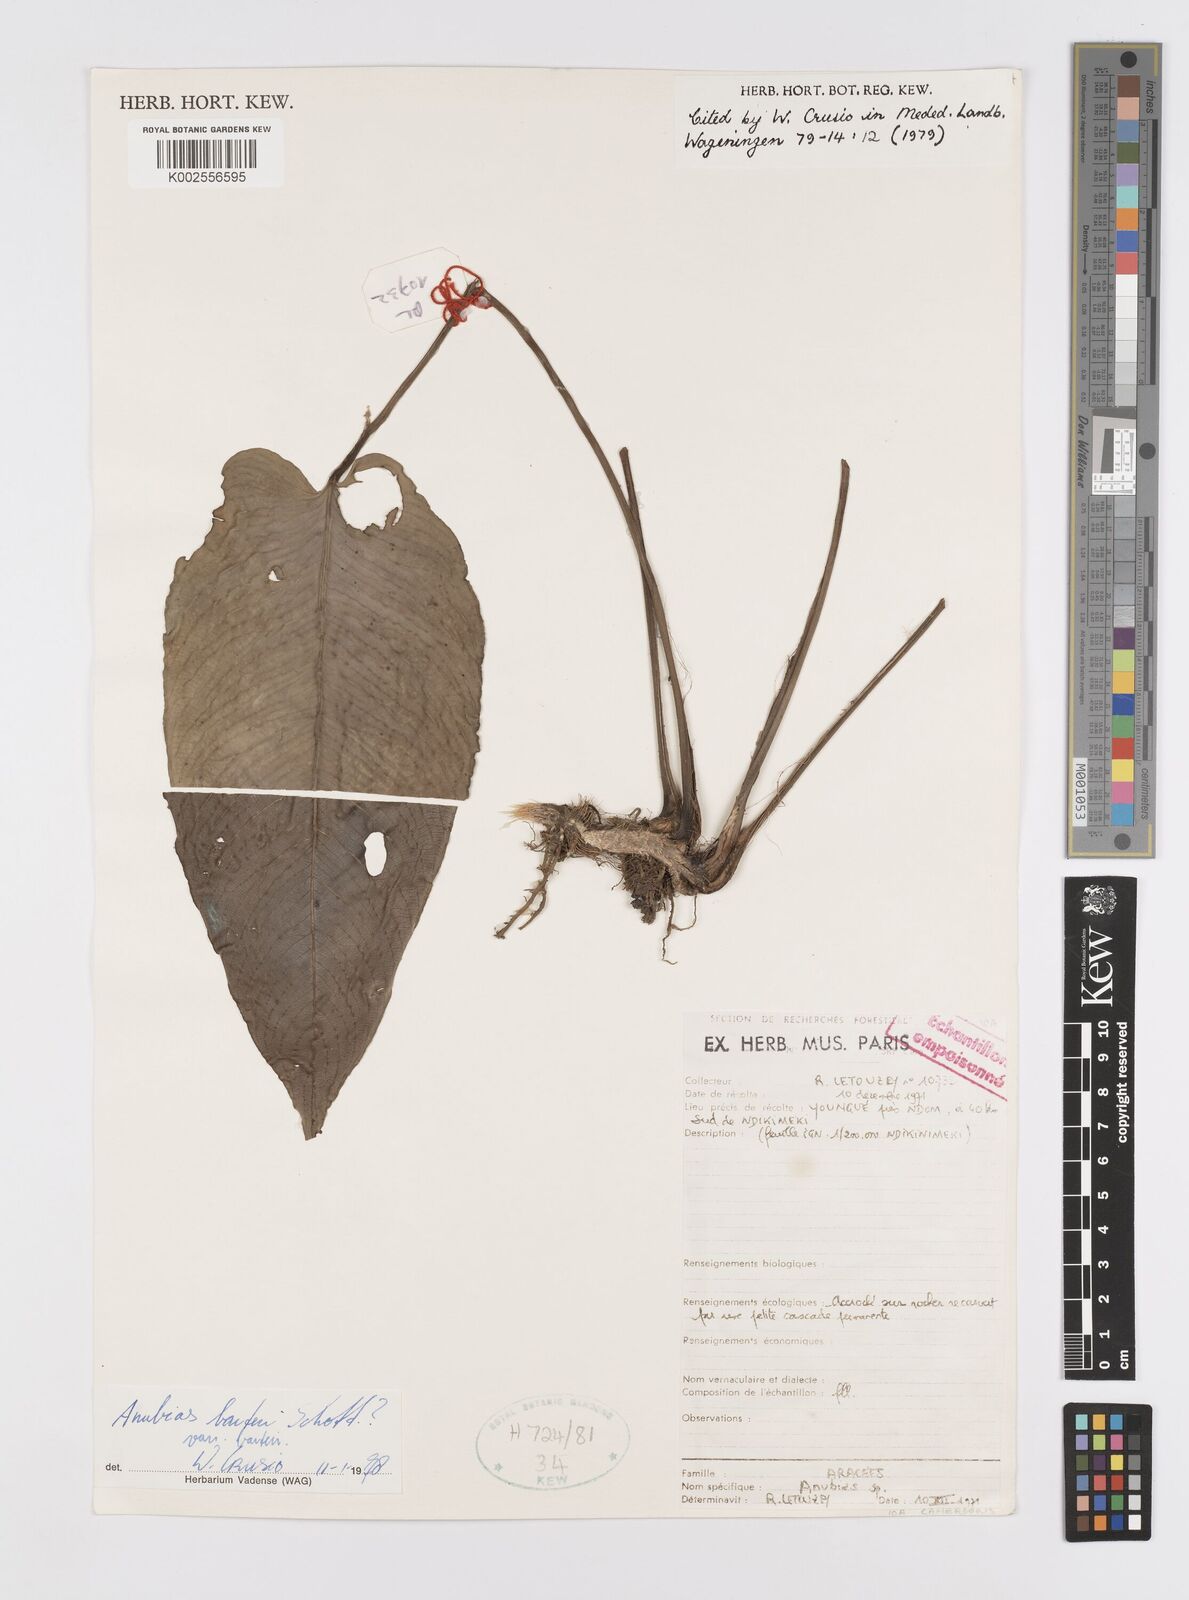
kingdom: Plantae
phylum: Tracheophyta
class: Liliopsida
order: Alismatales
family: Araceae
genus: Anubias
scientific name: Anubias barteri
